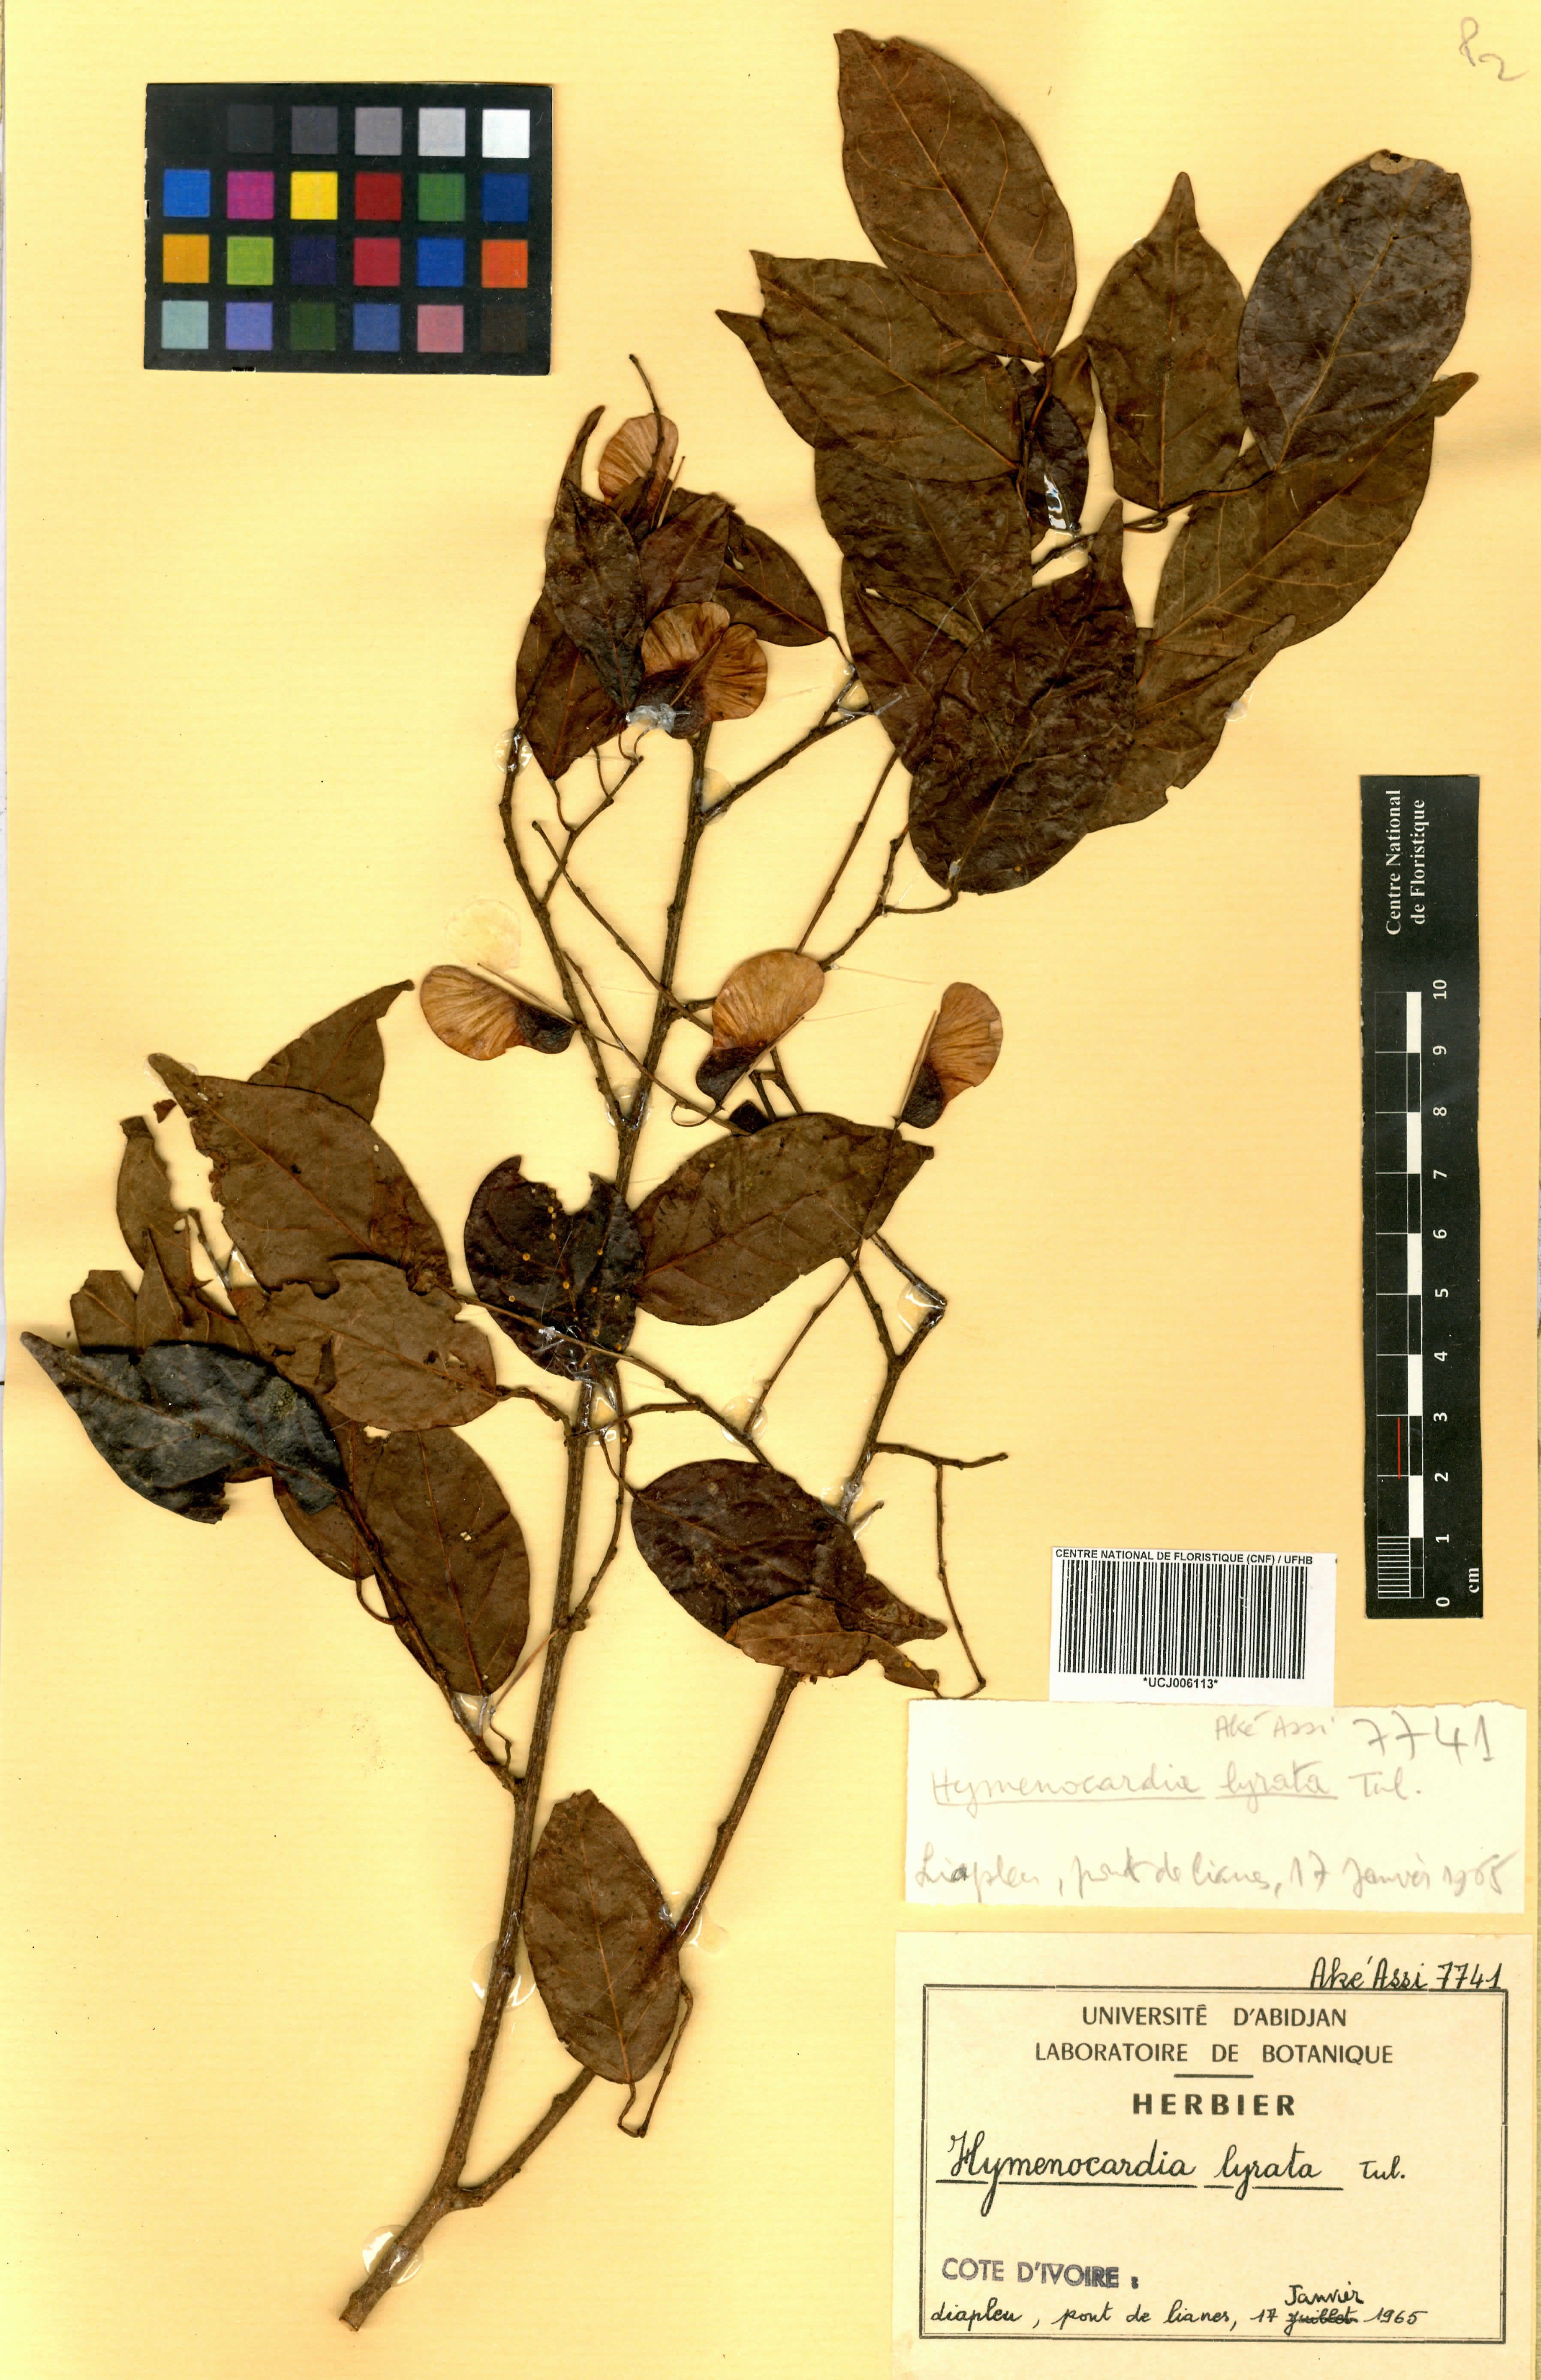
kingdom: Plantae
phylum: Tracheophyta
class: Magnoliopsida
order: Malpighiales
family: Phyllanthaceae
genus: Hymenocardia
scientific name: Hymenocardia lyrata
